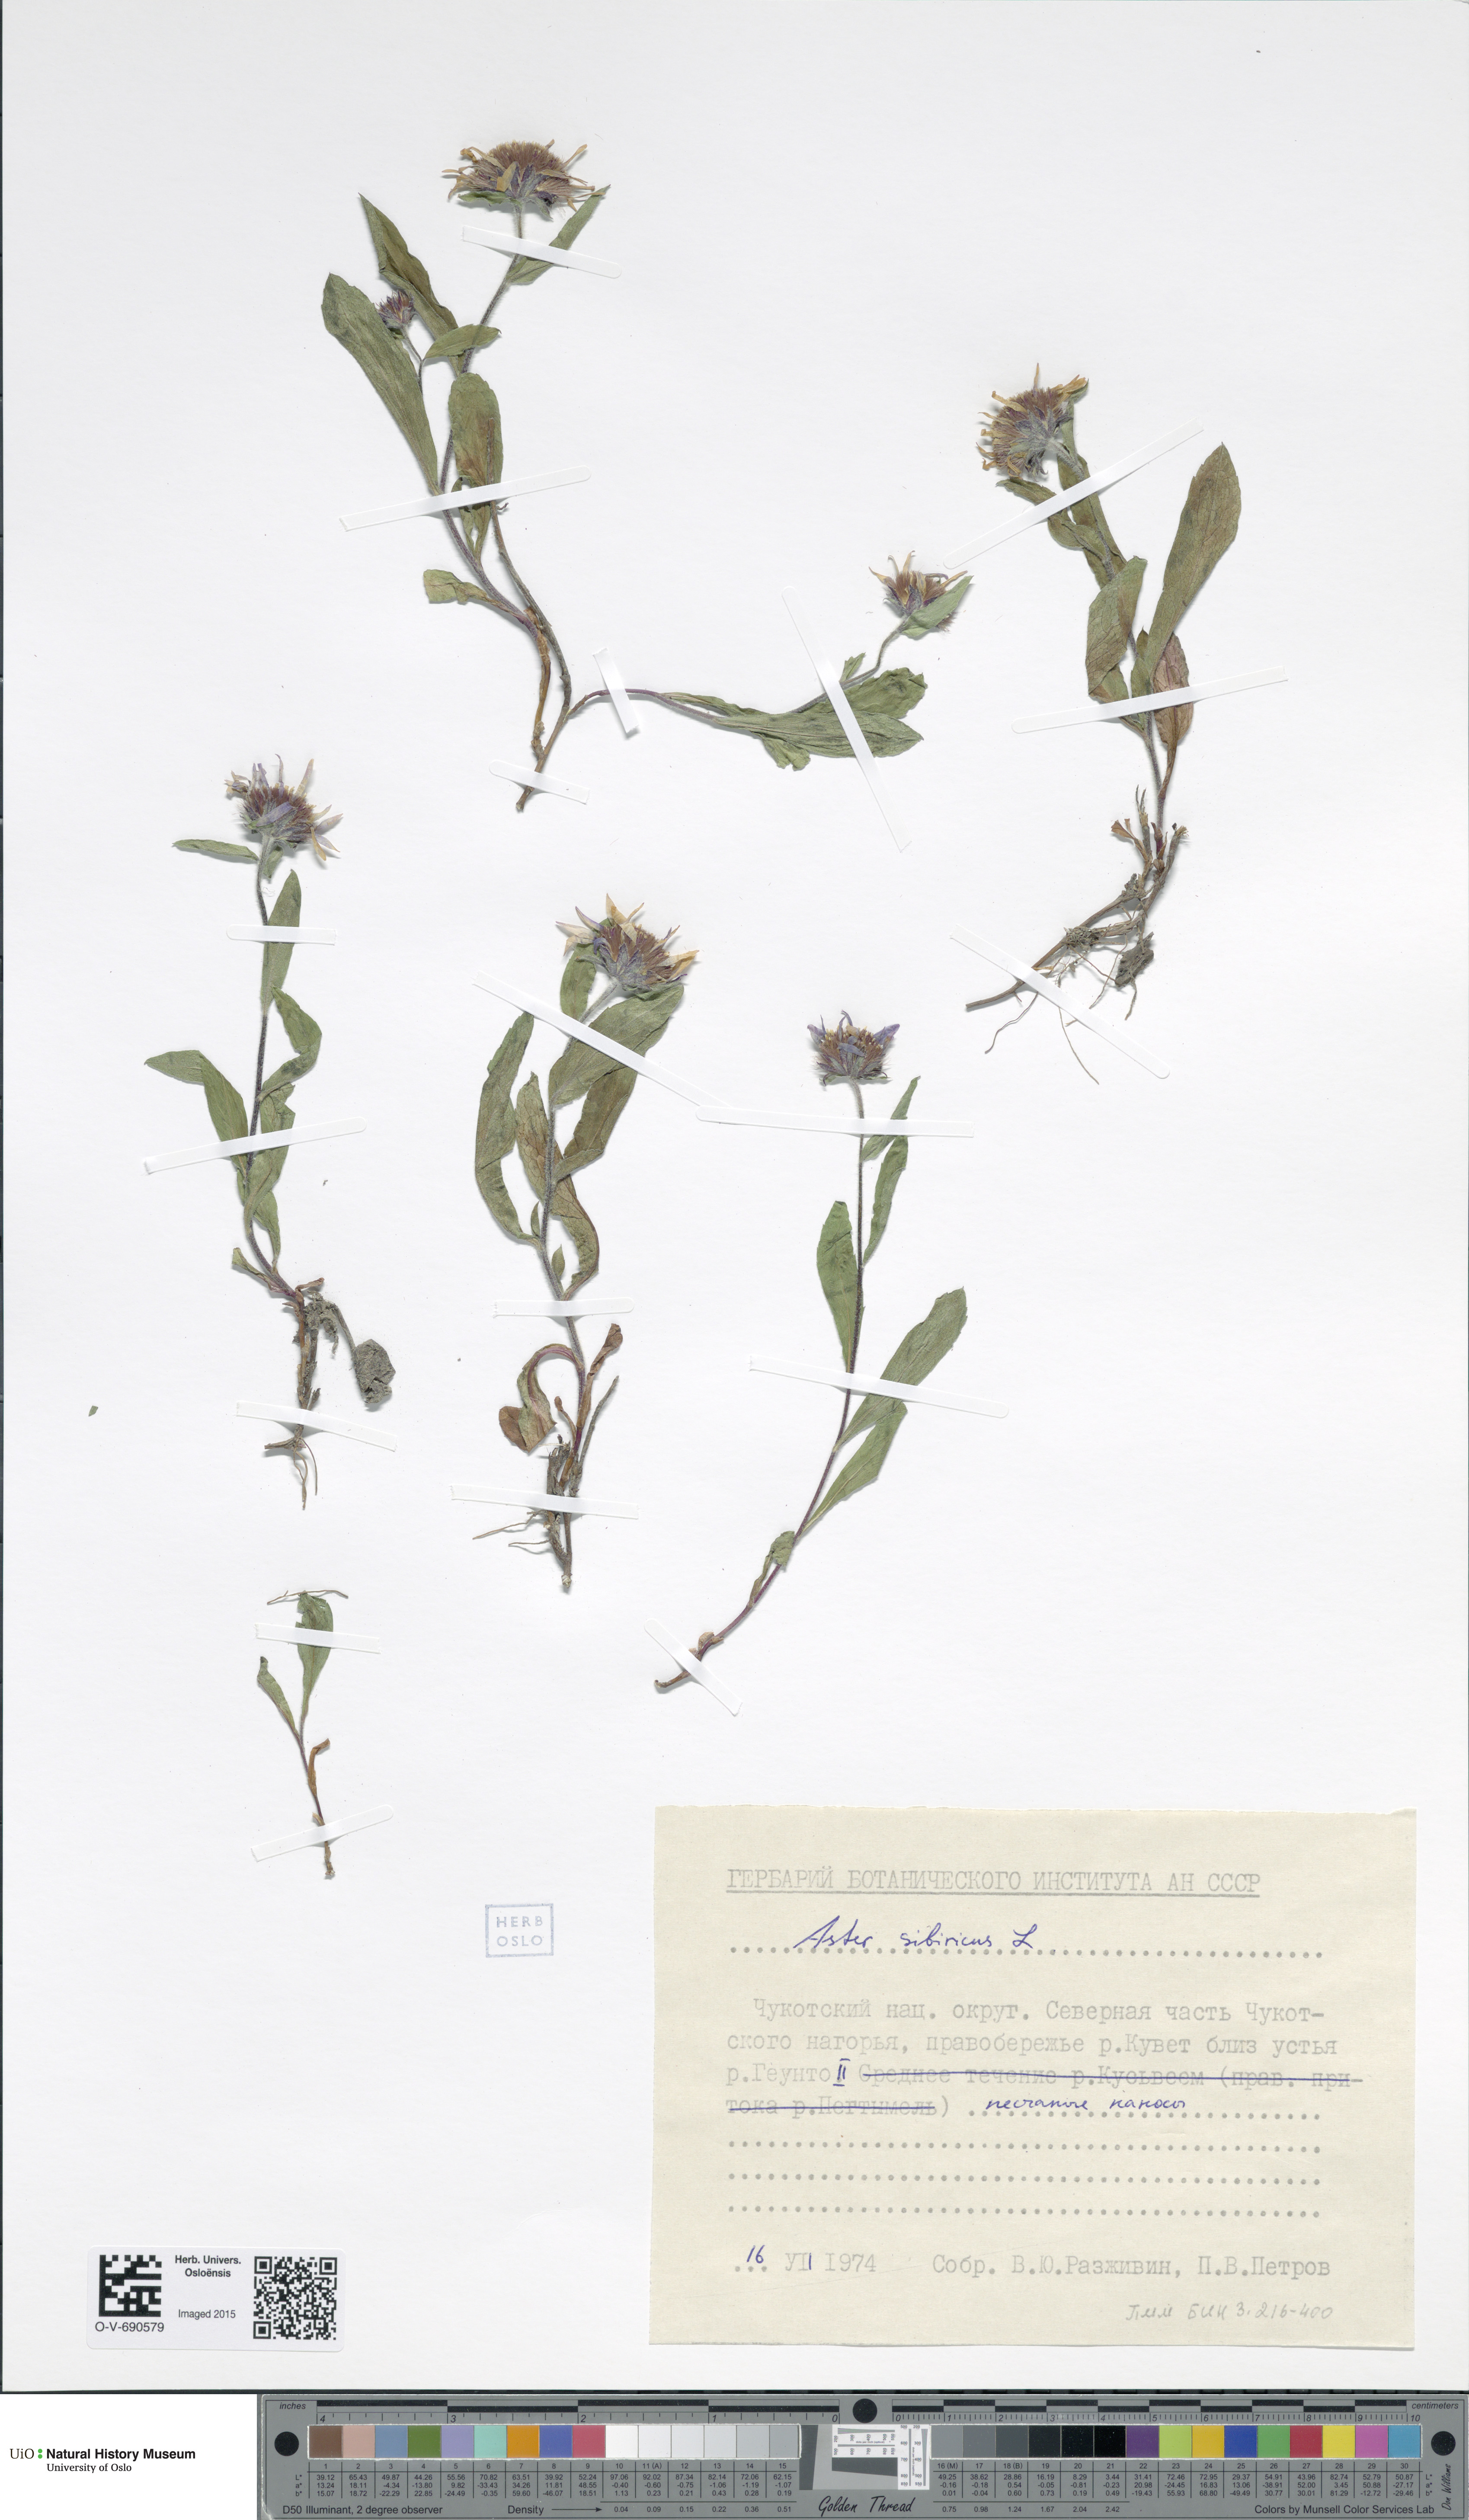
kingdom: Plantae
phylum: Tracheophyta
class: Magnoliopsida
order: Asterales
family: Asteraceae
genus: Eurybia
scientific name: Eurybia sibirica
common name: Arctic aster
